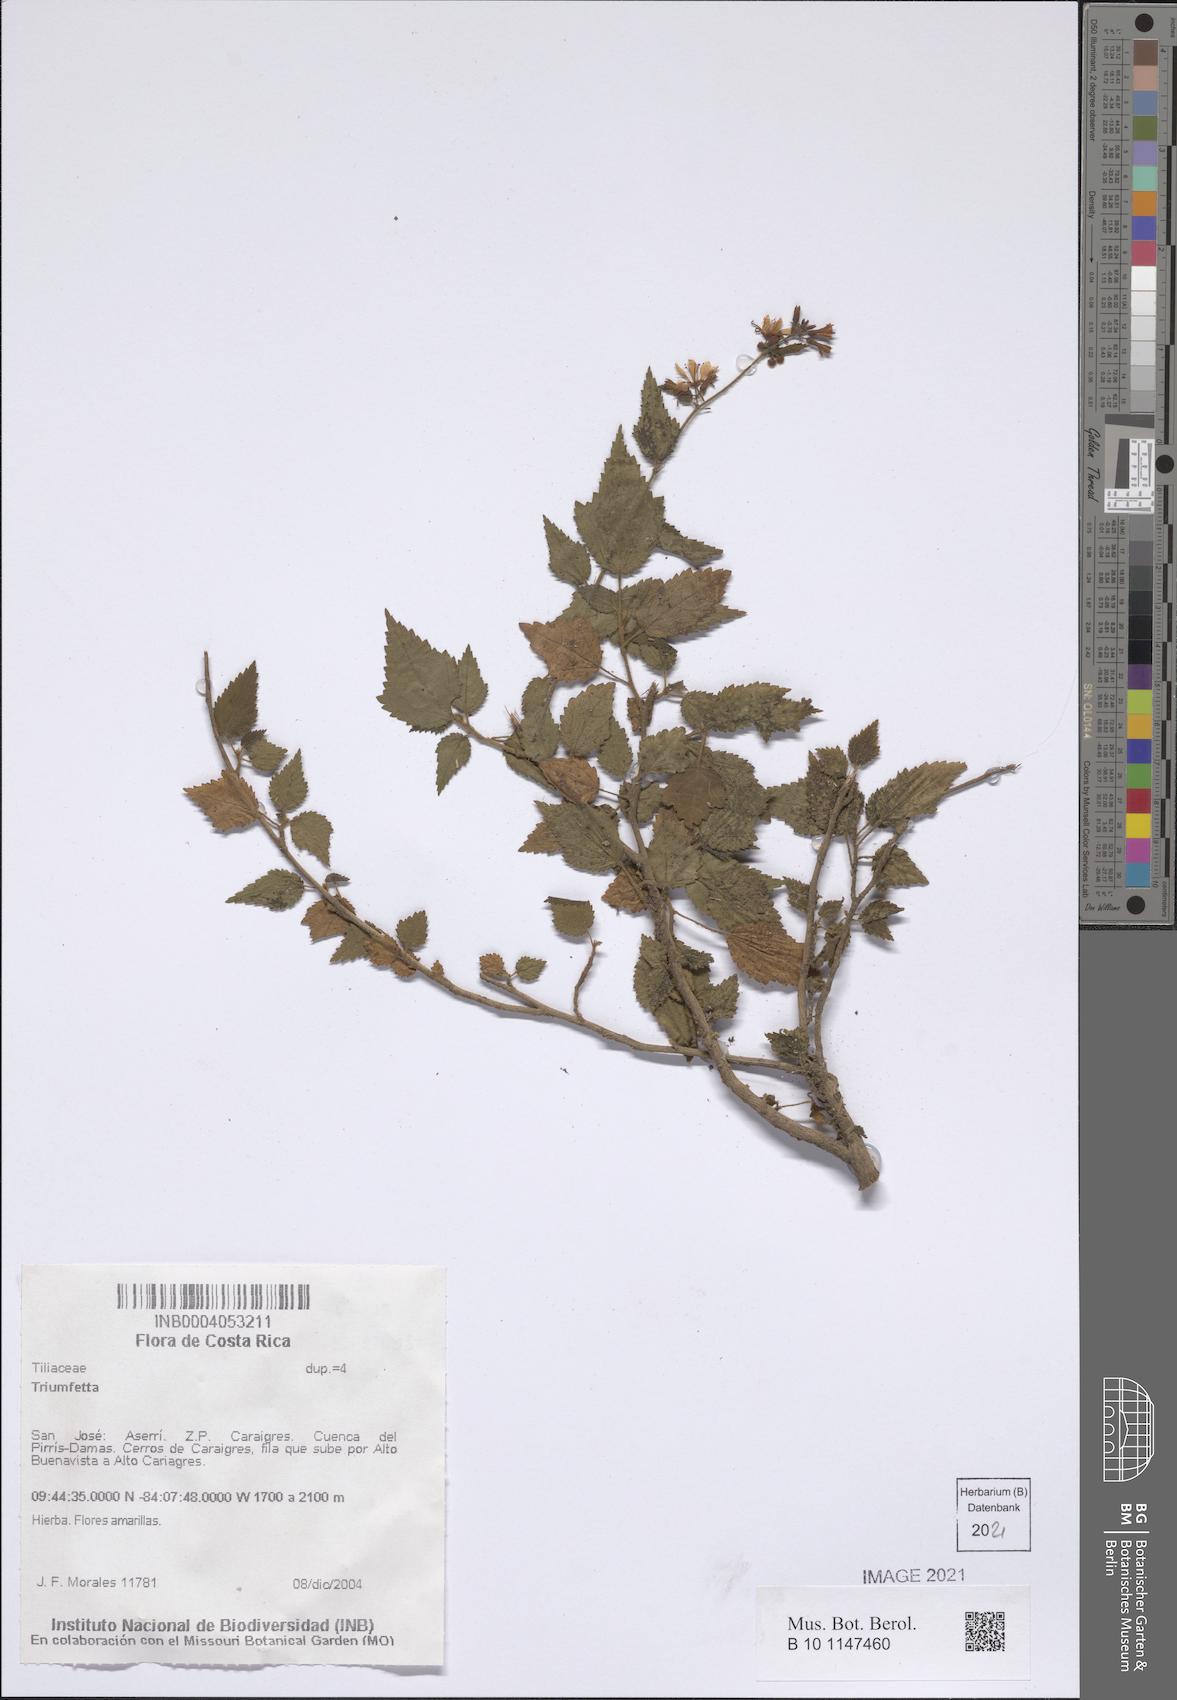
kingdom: Plantae
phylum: Tracheophyta
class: Magnoliopsida
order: Malvales
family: Malvaceae
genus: Triumfetta
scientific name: Triumfetta
